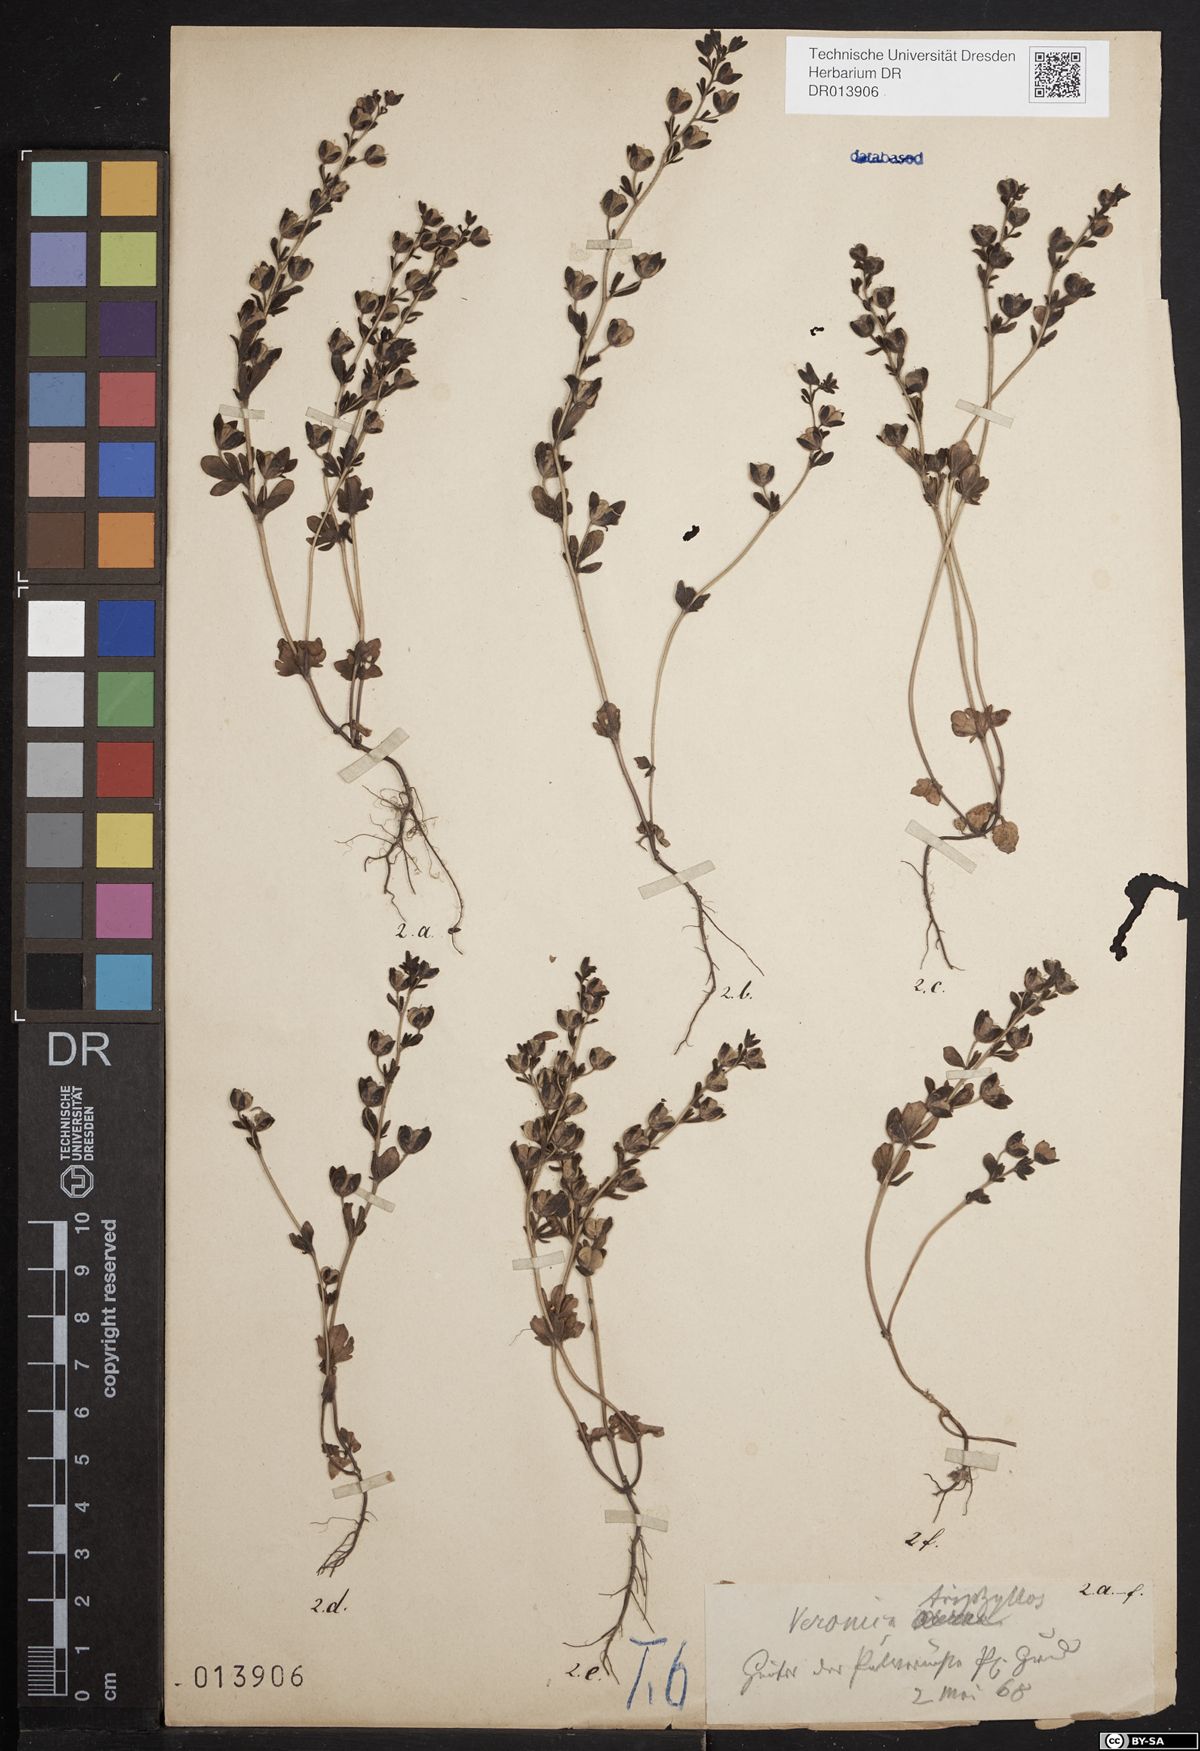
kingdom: Plantae
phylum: Tracheophyta
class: Magnoliopsida
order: Lamiales
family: Plantaginaceae
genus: Veronica
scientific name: Veronica triphyllos
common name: Fingered speedwell
